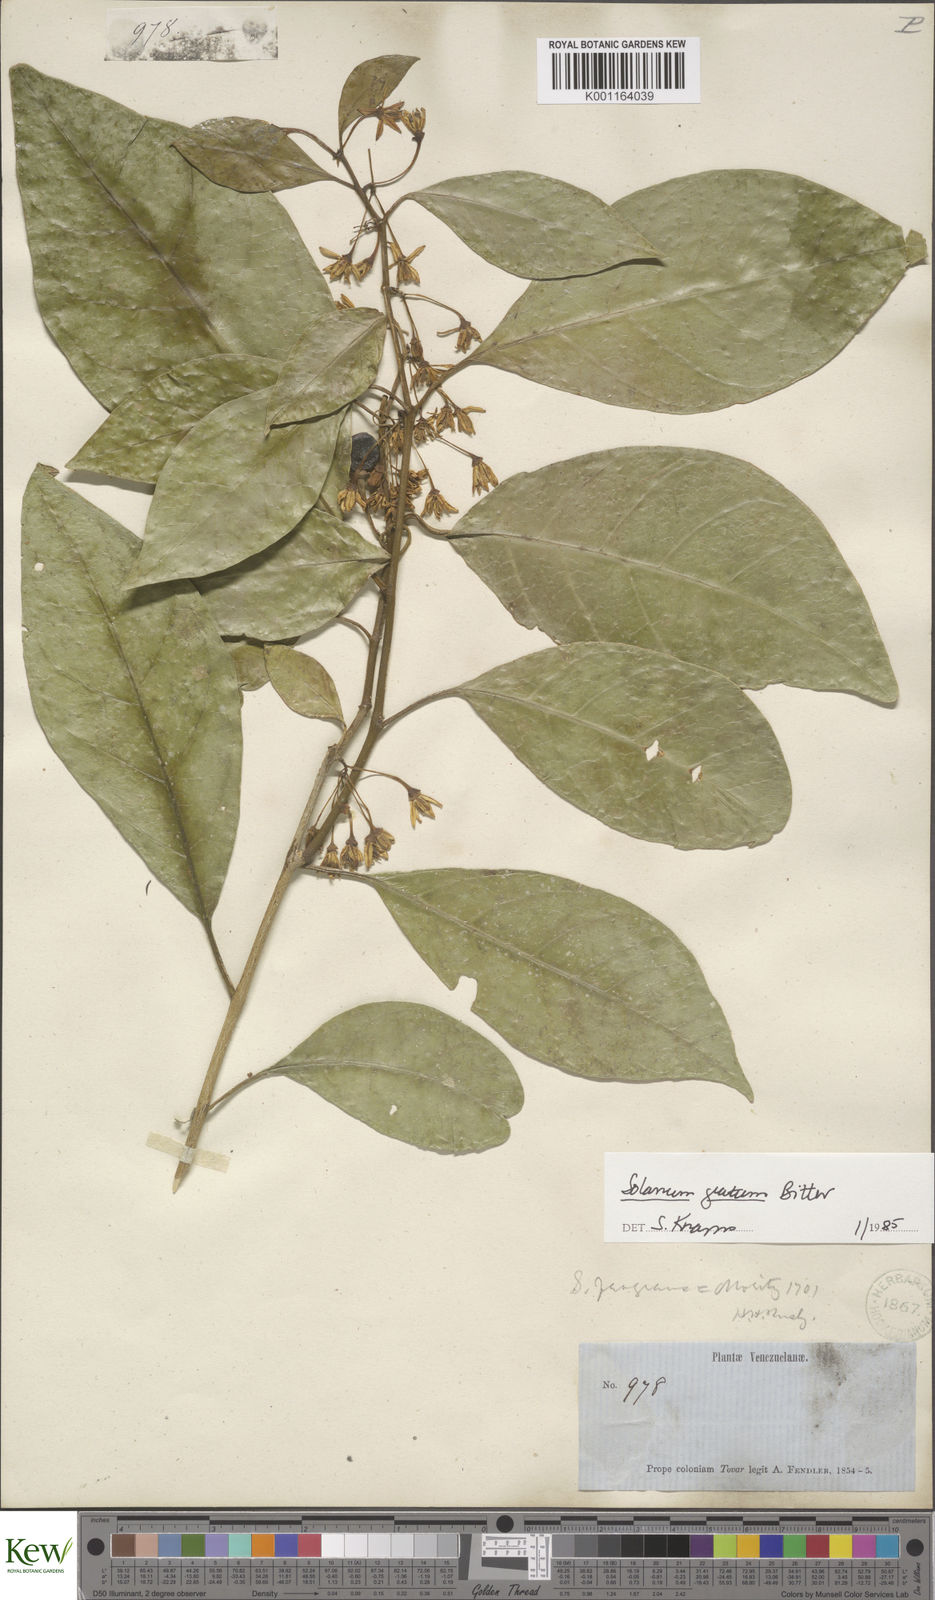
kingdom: Plantae
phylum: Tracheophyta
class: Magnoliopsida
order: Solanales
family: Solanaceae
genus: Solanum
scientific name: Solanum gratum
